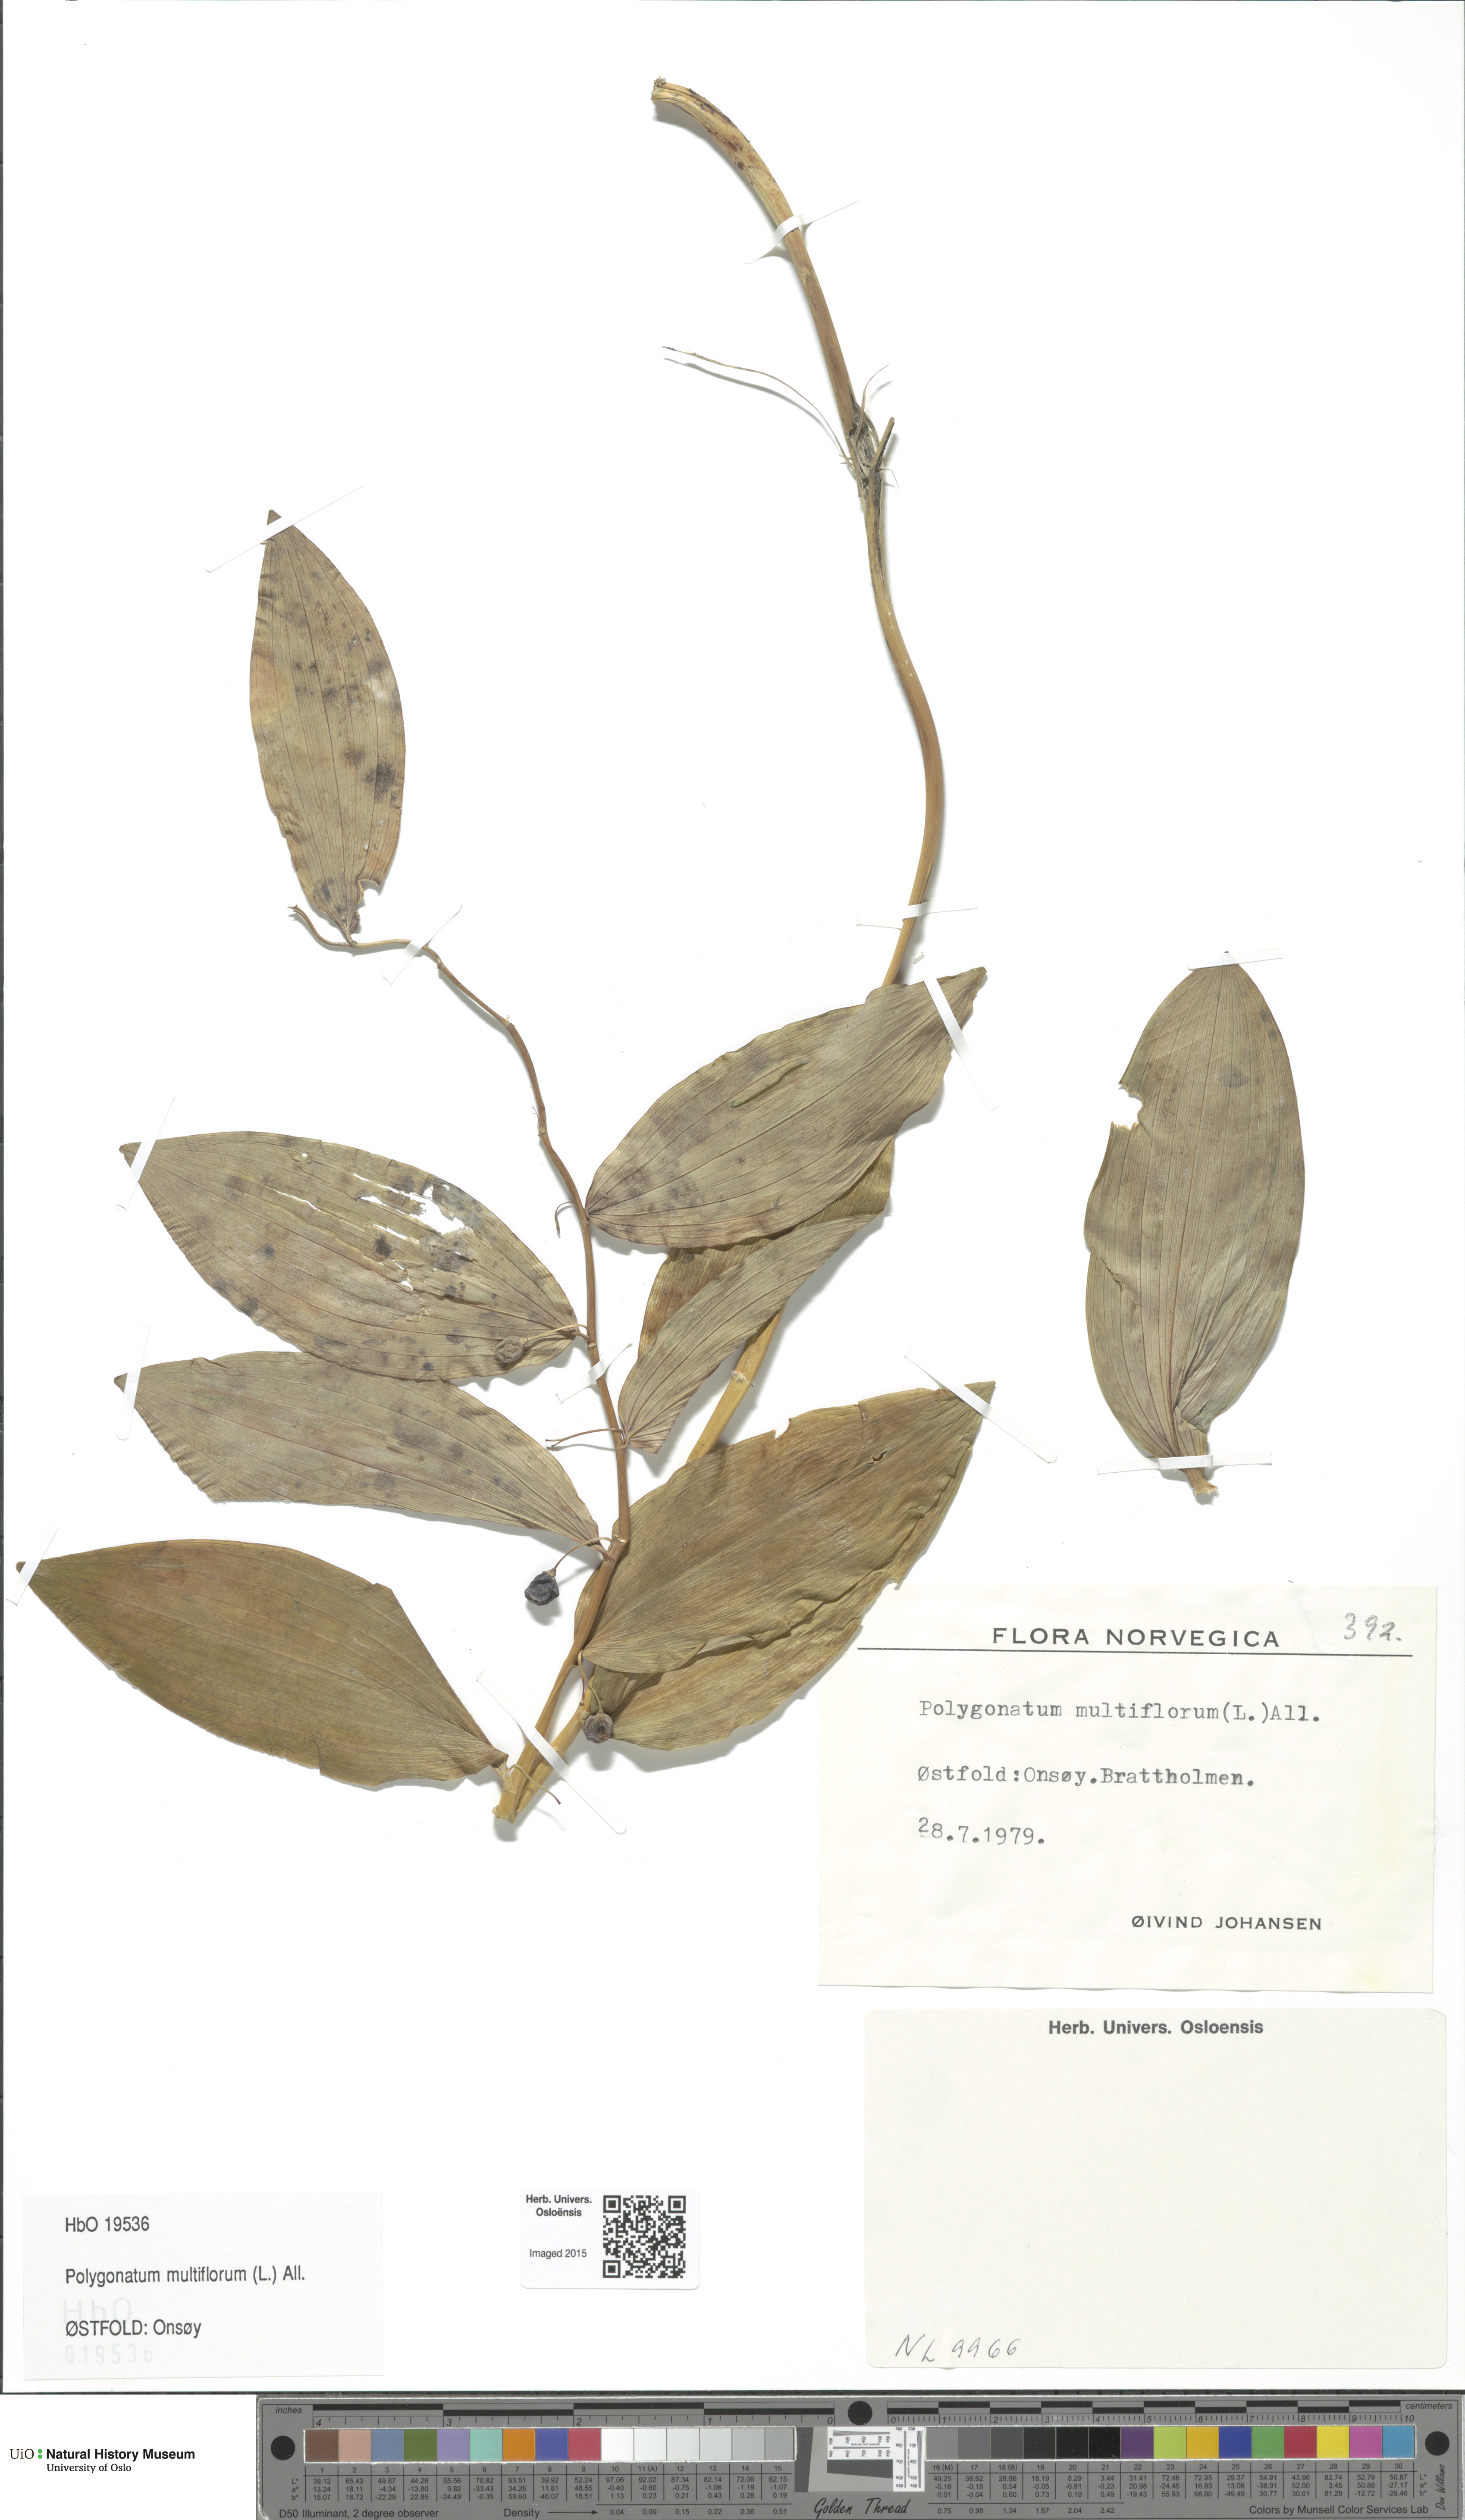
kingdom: Plantae
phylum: Tracheophyta
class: Liliopsida
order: Asparagales
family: Asparagaceae
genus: Polygonatum
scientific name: Polygonatum multiflorum
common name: Solomon's-seal
